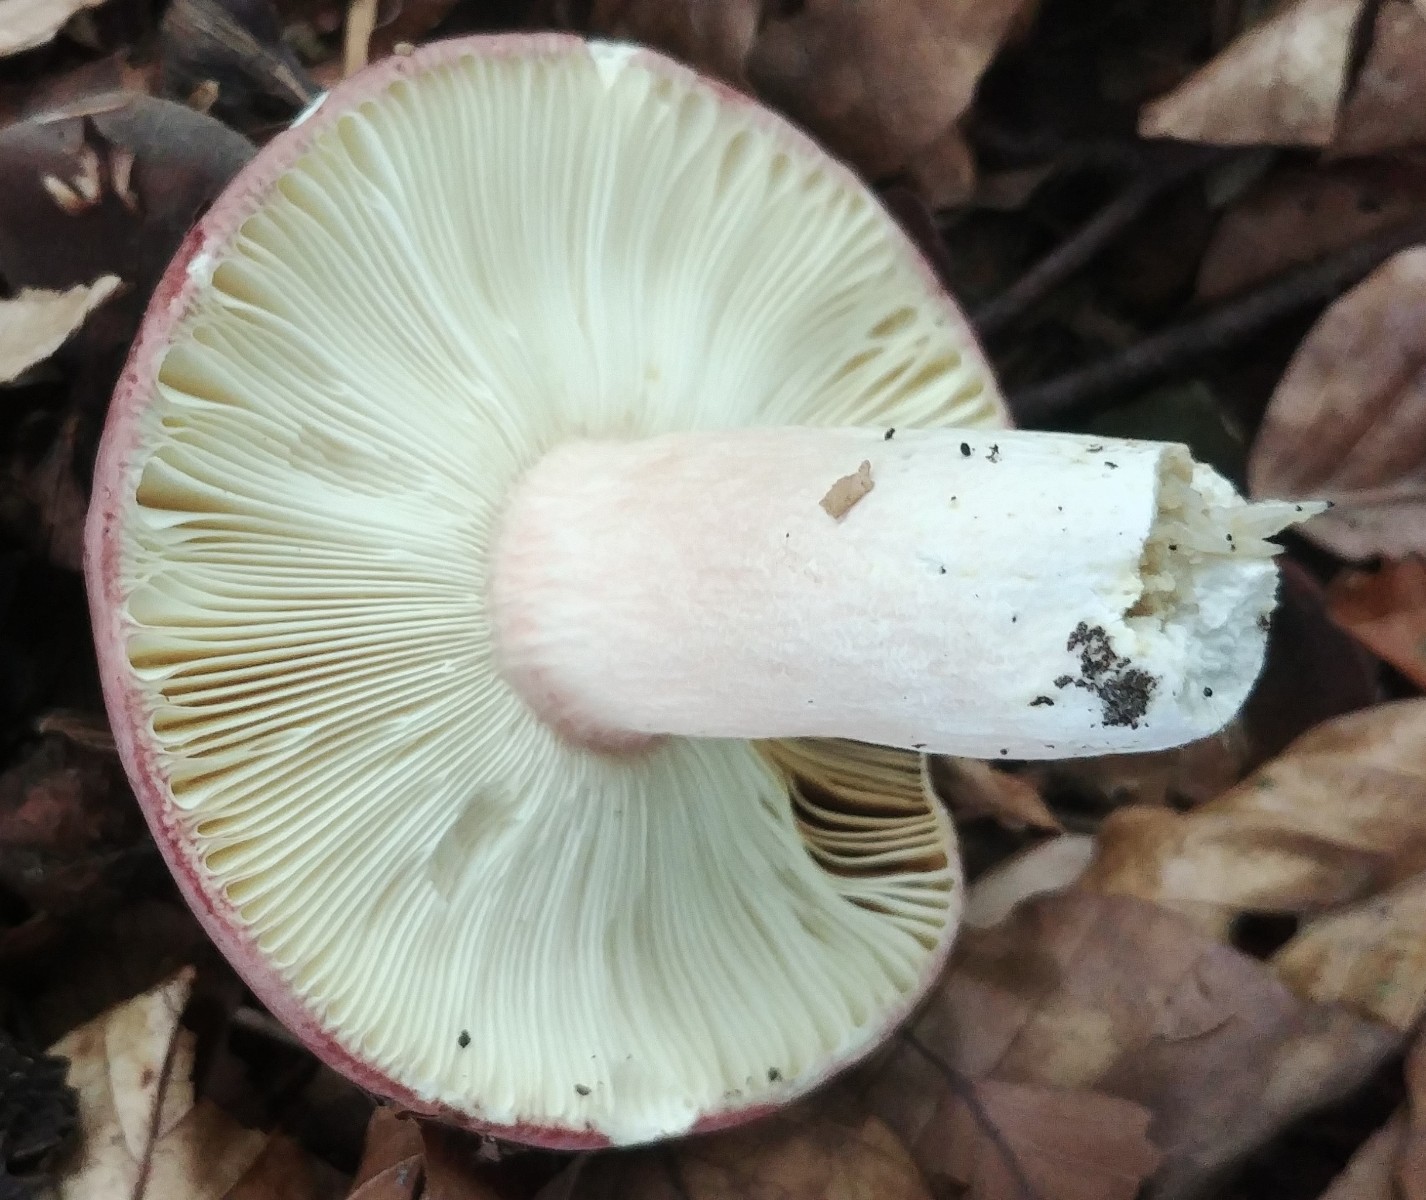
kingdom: Fungi
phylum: Basidiomycota
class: Agaricomycetes
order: Russulales
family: Russulaceae
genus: Russula
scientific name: Russula olivacea
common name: stor skørhat
